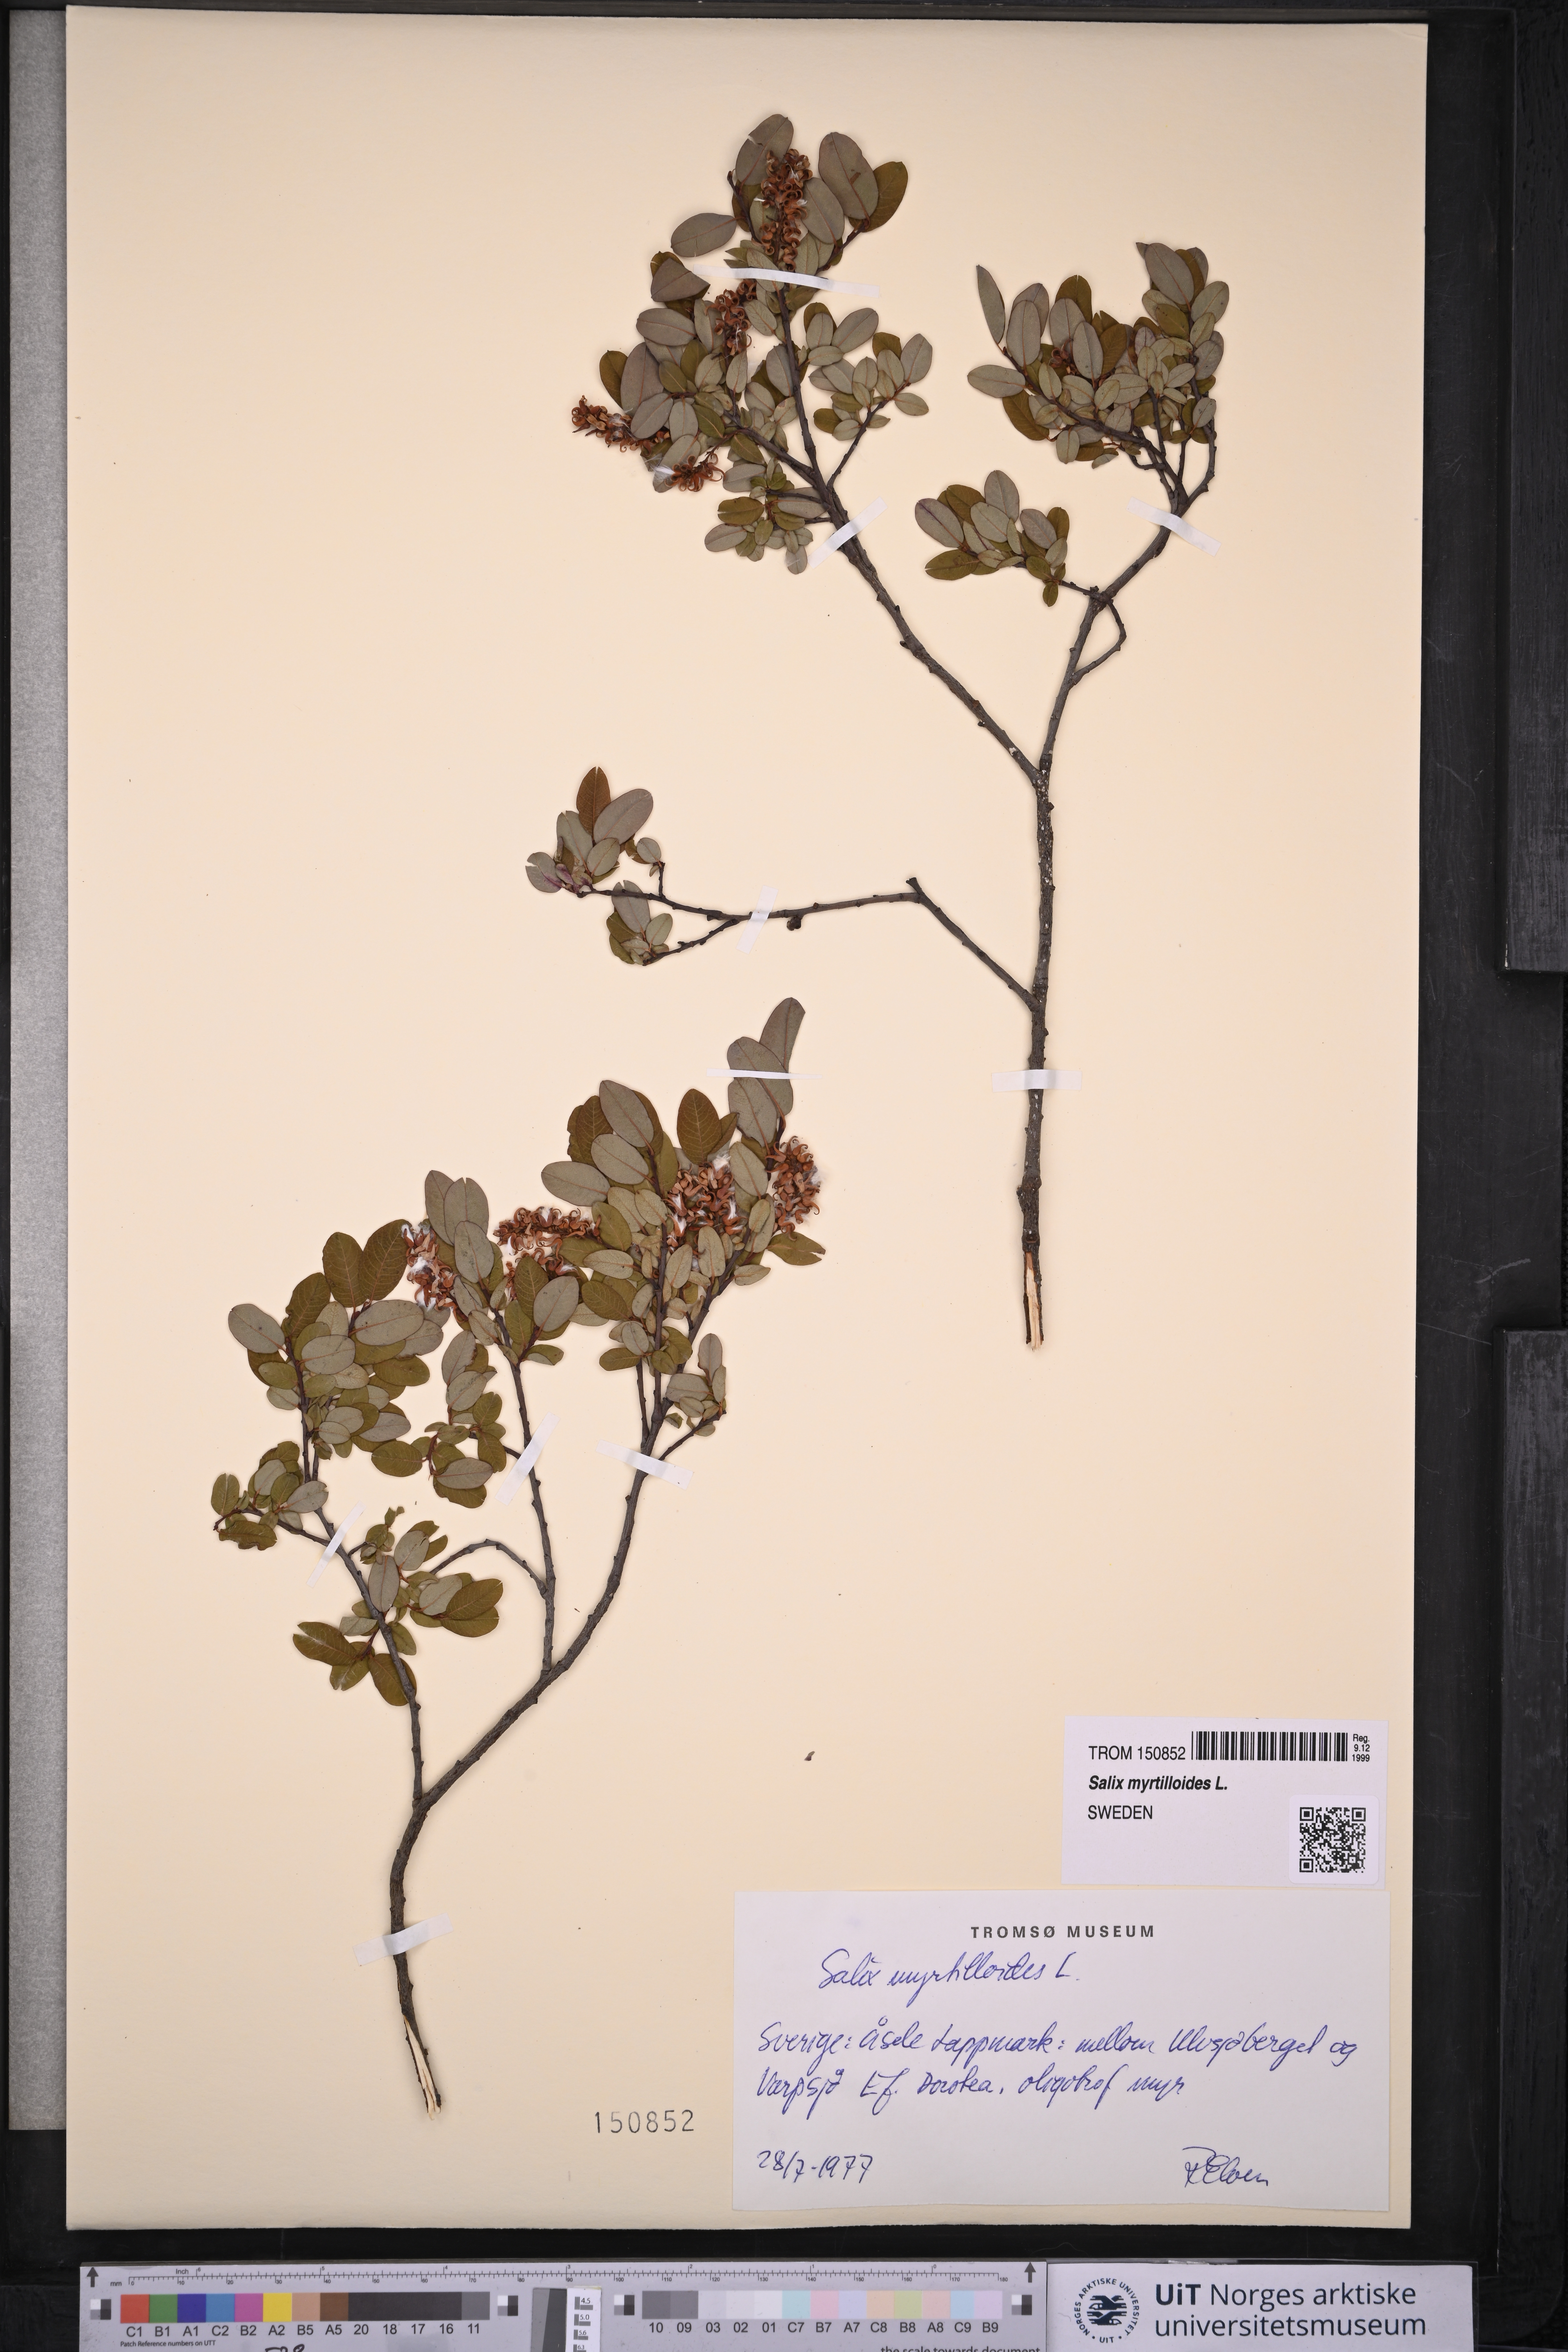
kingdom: Plantae
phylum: Tracheophyta
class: Magnoliopsida
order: Malpighiales
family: Salicaceae
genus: Salix
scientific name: Salix myrtilloides
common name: Myrtle-leaved willow
